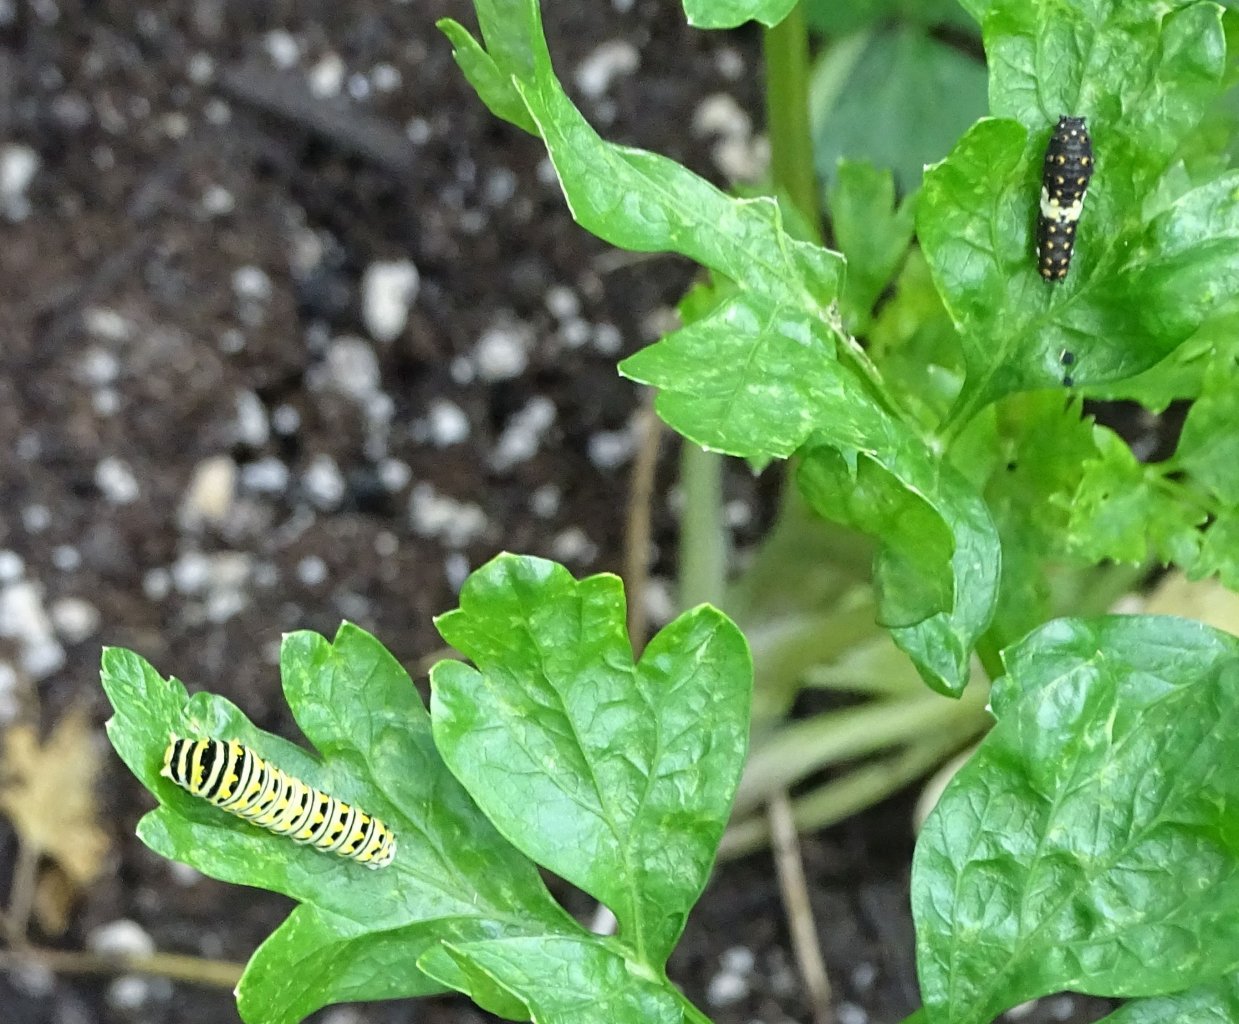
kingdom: Animalia
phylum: Arthropoda
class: Insecta
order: Lepidoptera
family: Papilionidae
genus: Papilio
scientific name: Papilio polyxenes
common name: Black Swallowtail
